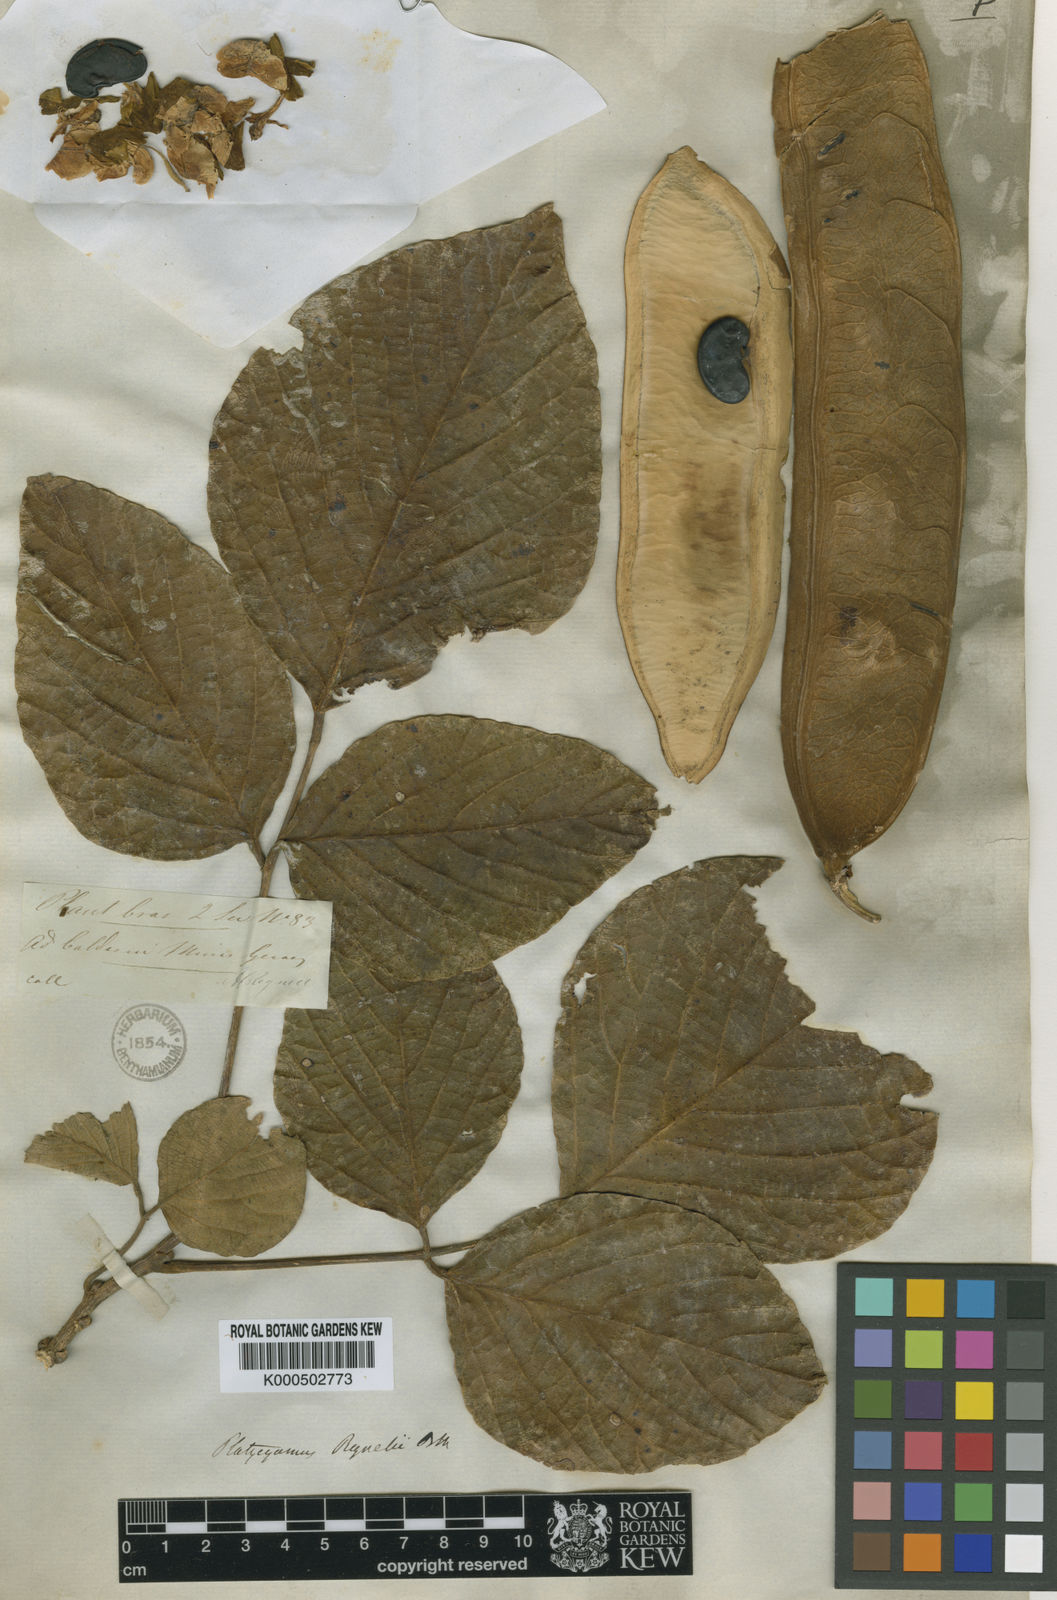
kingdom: Plantae
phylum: Tracheophyta
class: Magnoliopsida
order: Fabales
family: Fabaceae
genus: Platycyamus
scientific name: Platycyamus regnellii
